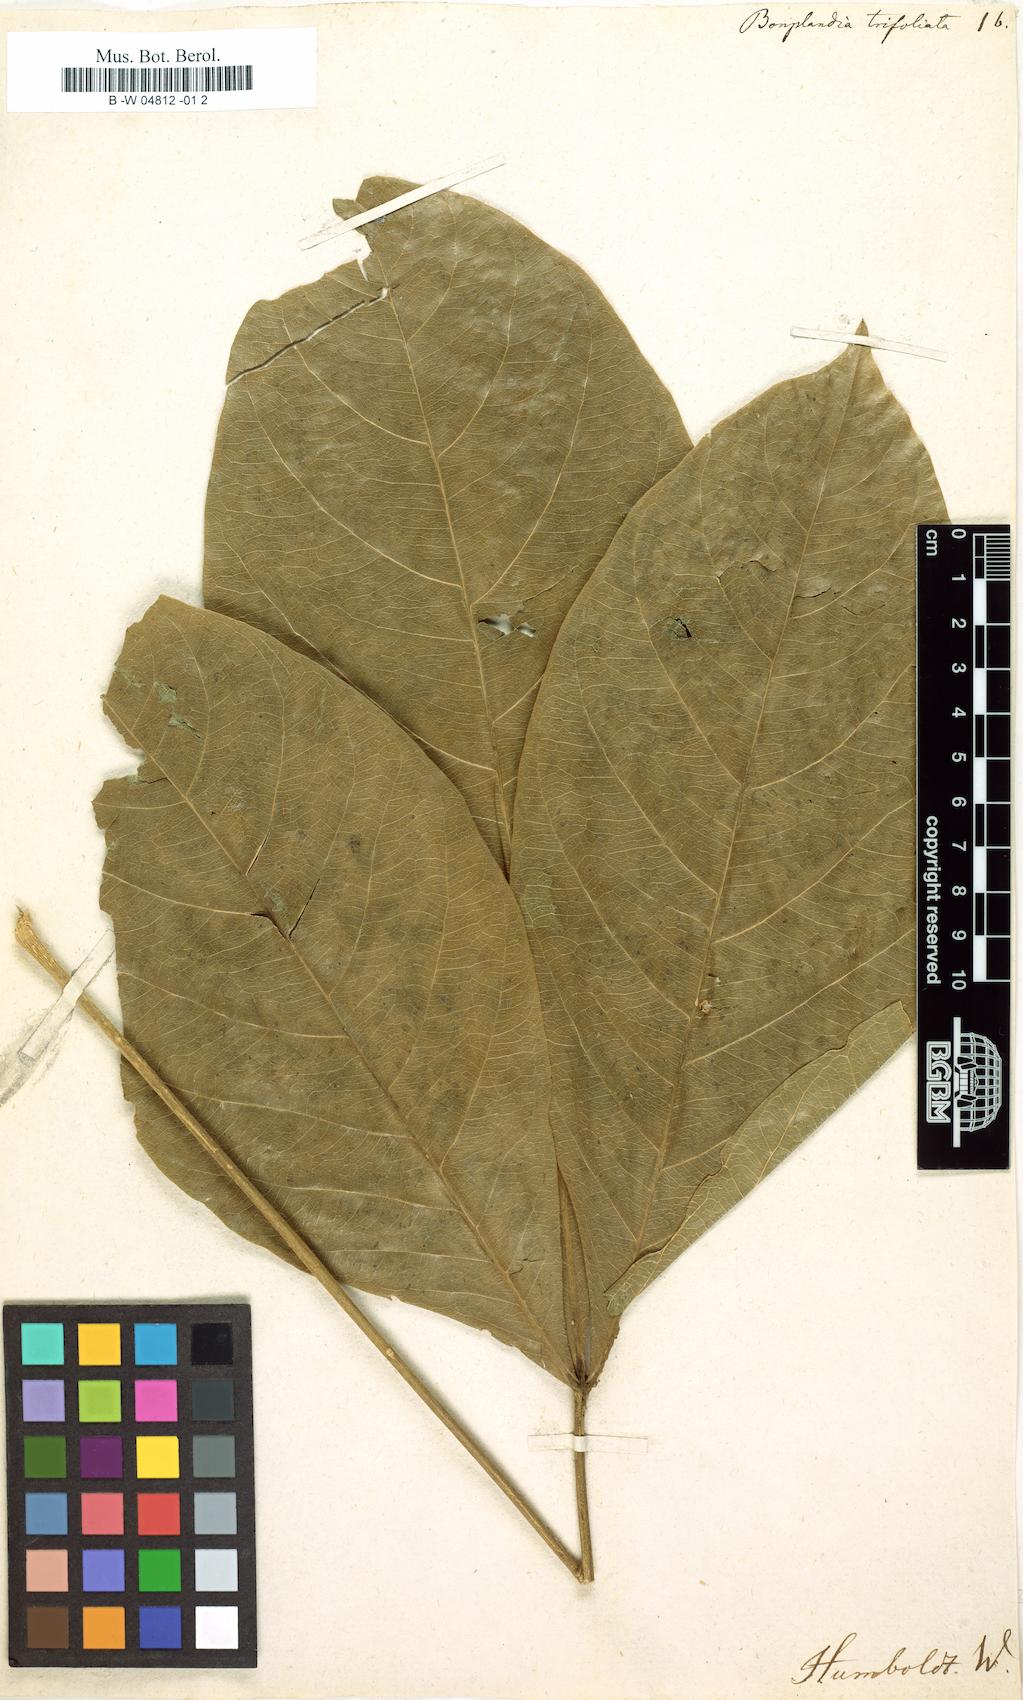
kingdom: Plantae
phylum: Tracheophyta
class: Magnoliopsida
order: Sapindales
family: Rutaceae
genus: Angostura
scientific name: Angostura trifoliata
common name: Angostura
